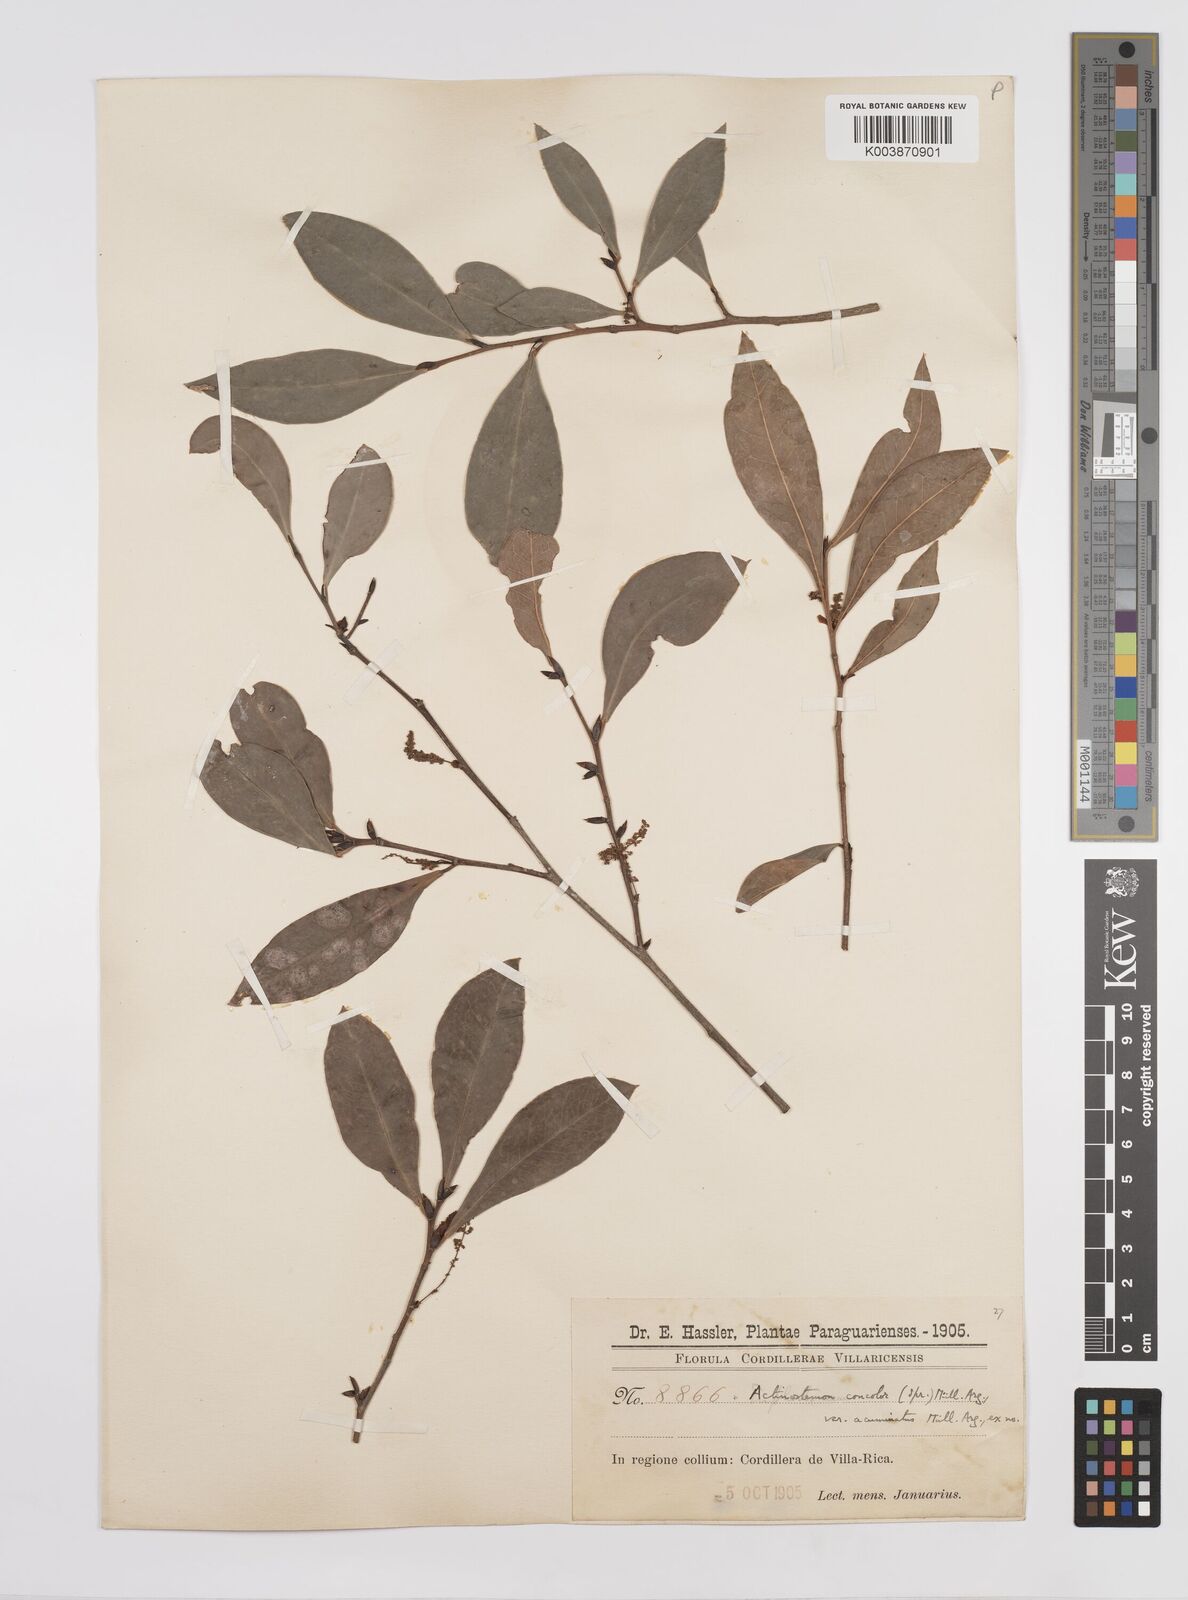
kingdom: Plantae
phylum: Tracheophyta
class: Magnoliopsida
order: Malpighiales
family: Euphorbiaceae
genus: Actinostemon
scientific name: Actinostemon concolor
